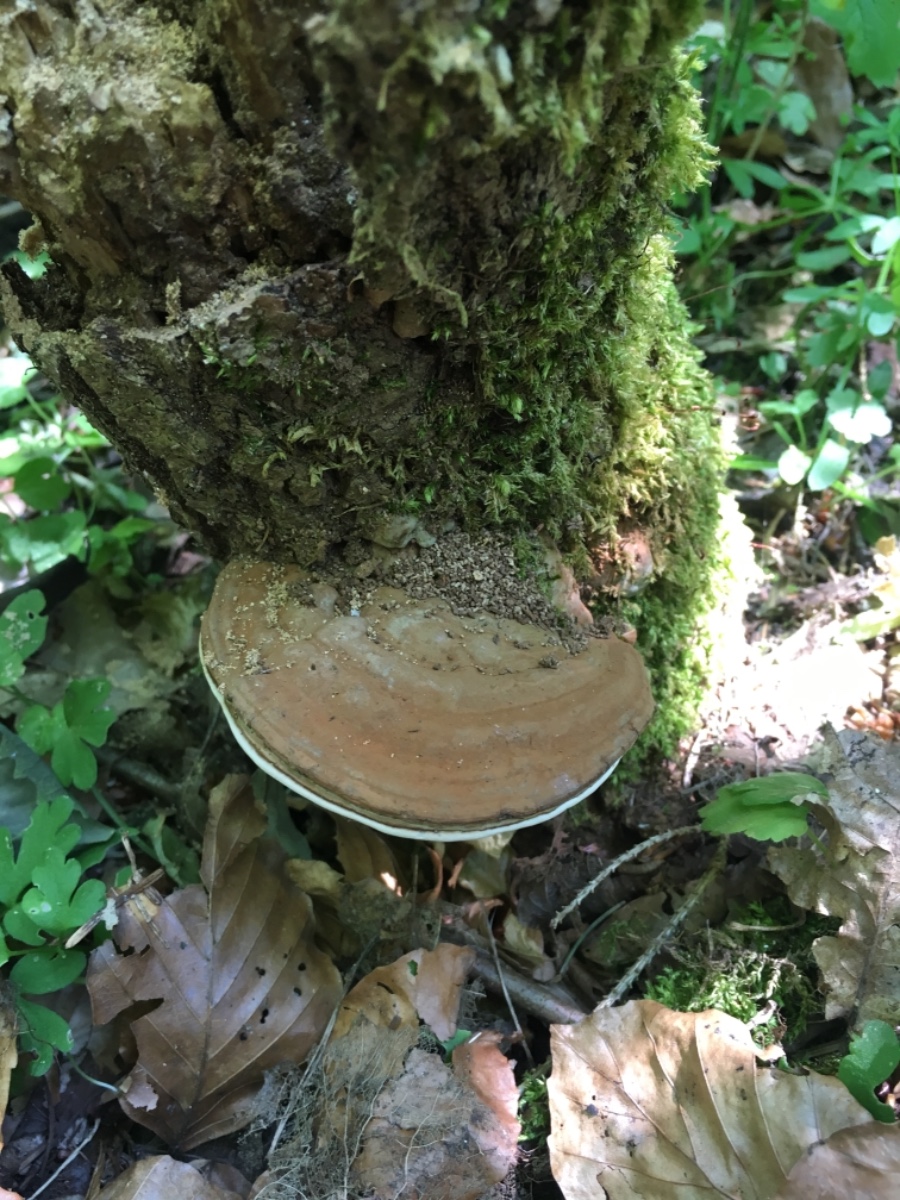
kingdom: Fungi
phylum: Basidiomycota
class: Agaricomycetes
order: Polyporales
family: Polyporaceae
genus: Ganoderma
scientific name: Ganoderma applanatum
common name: flad lakporesvamp
